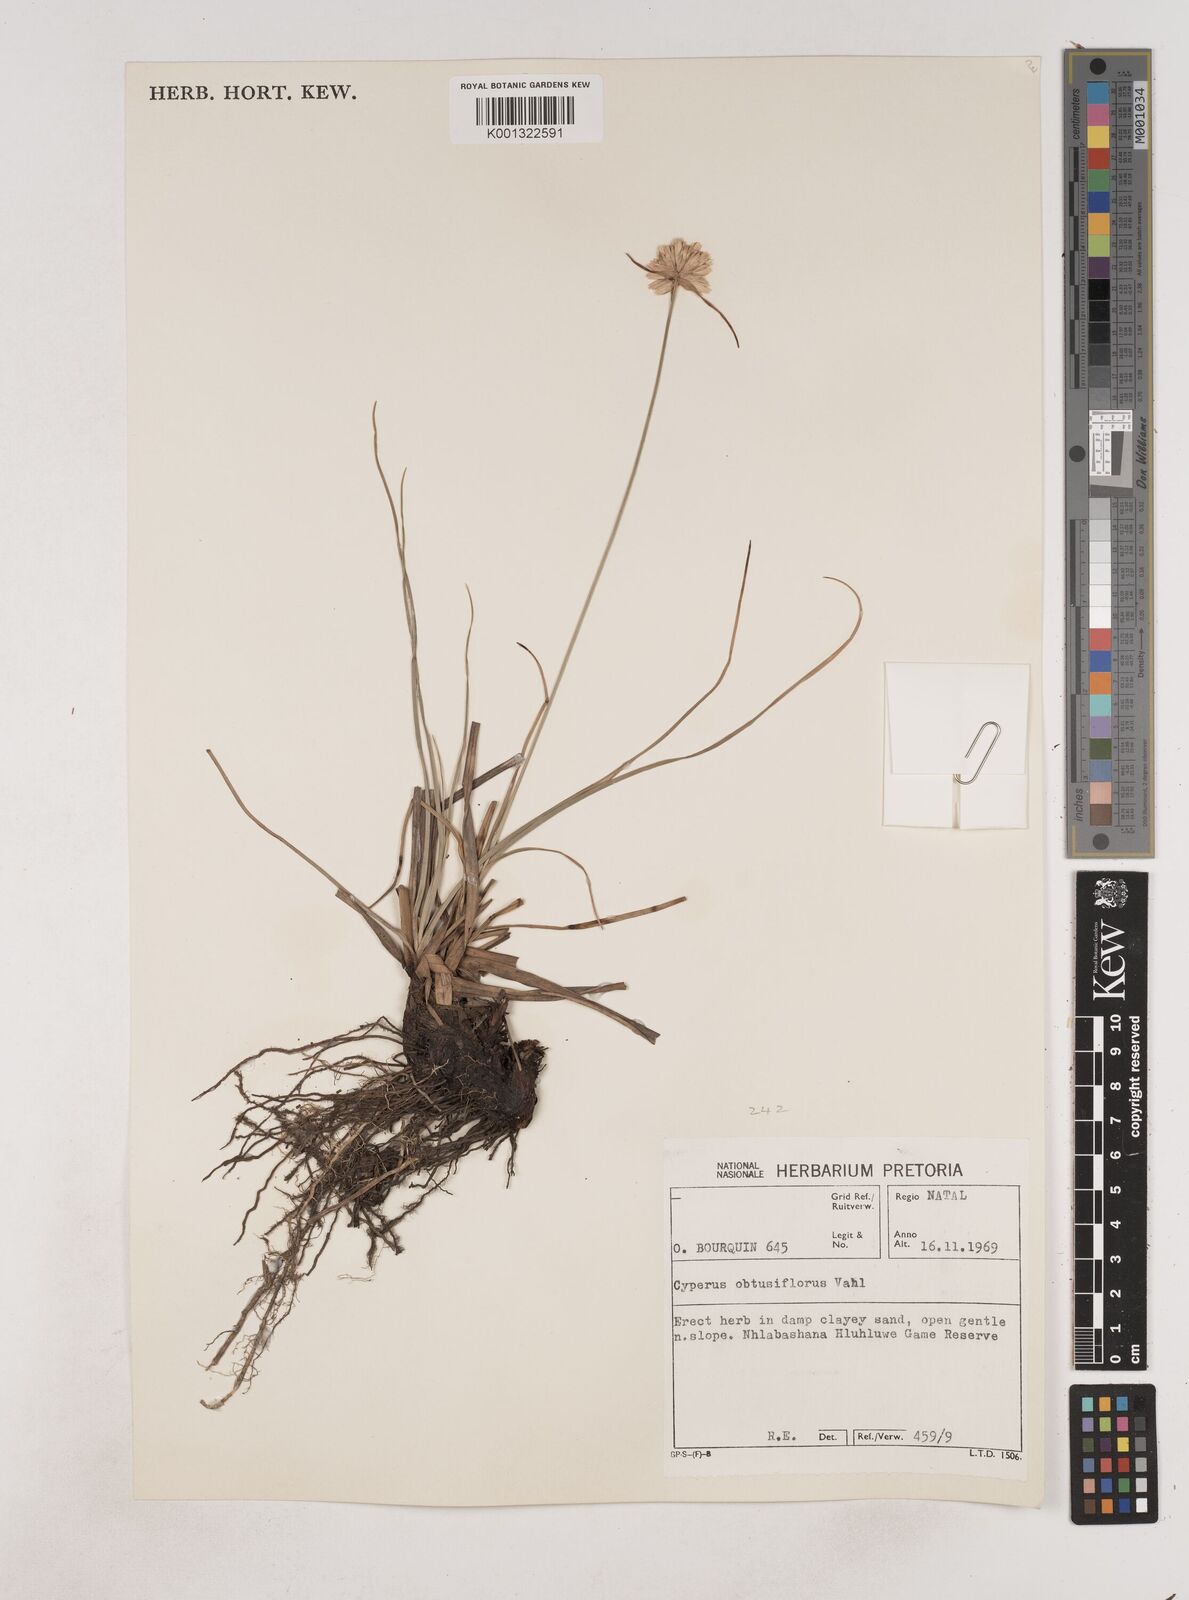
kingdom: Plantae
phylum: Tracheophyta
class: Liliopsida
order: Poales
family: Cyperaceae
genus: Cyperus
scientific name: Cyperus niveus
